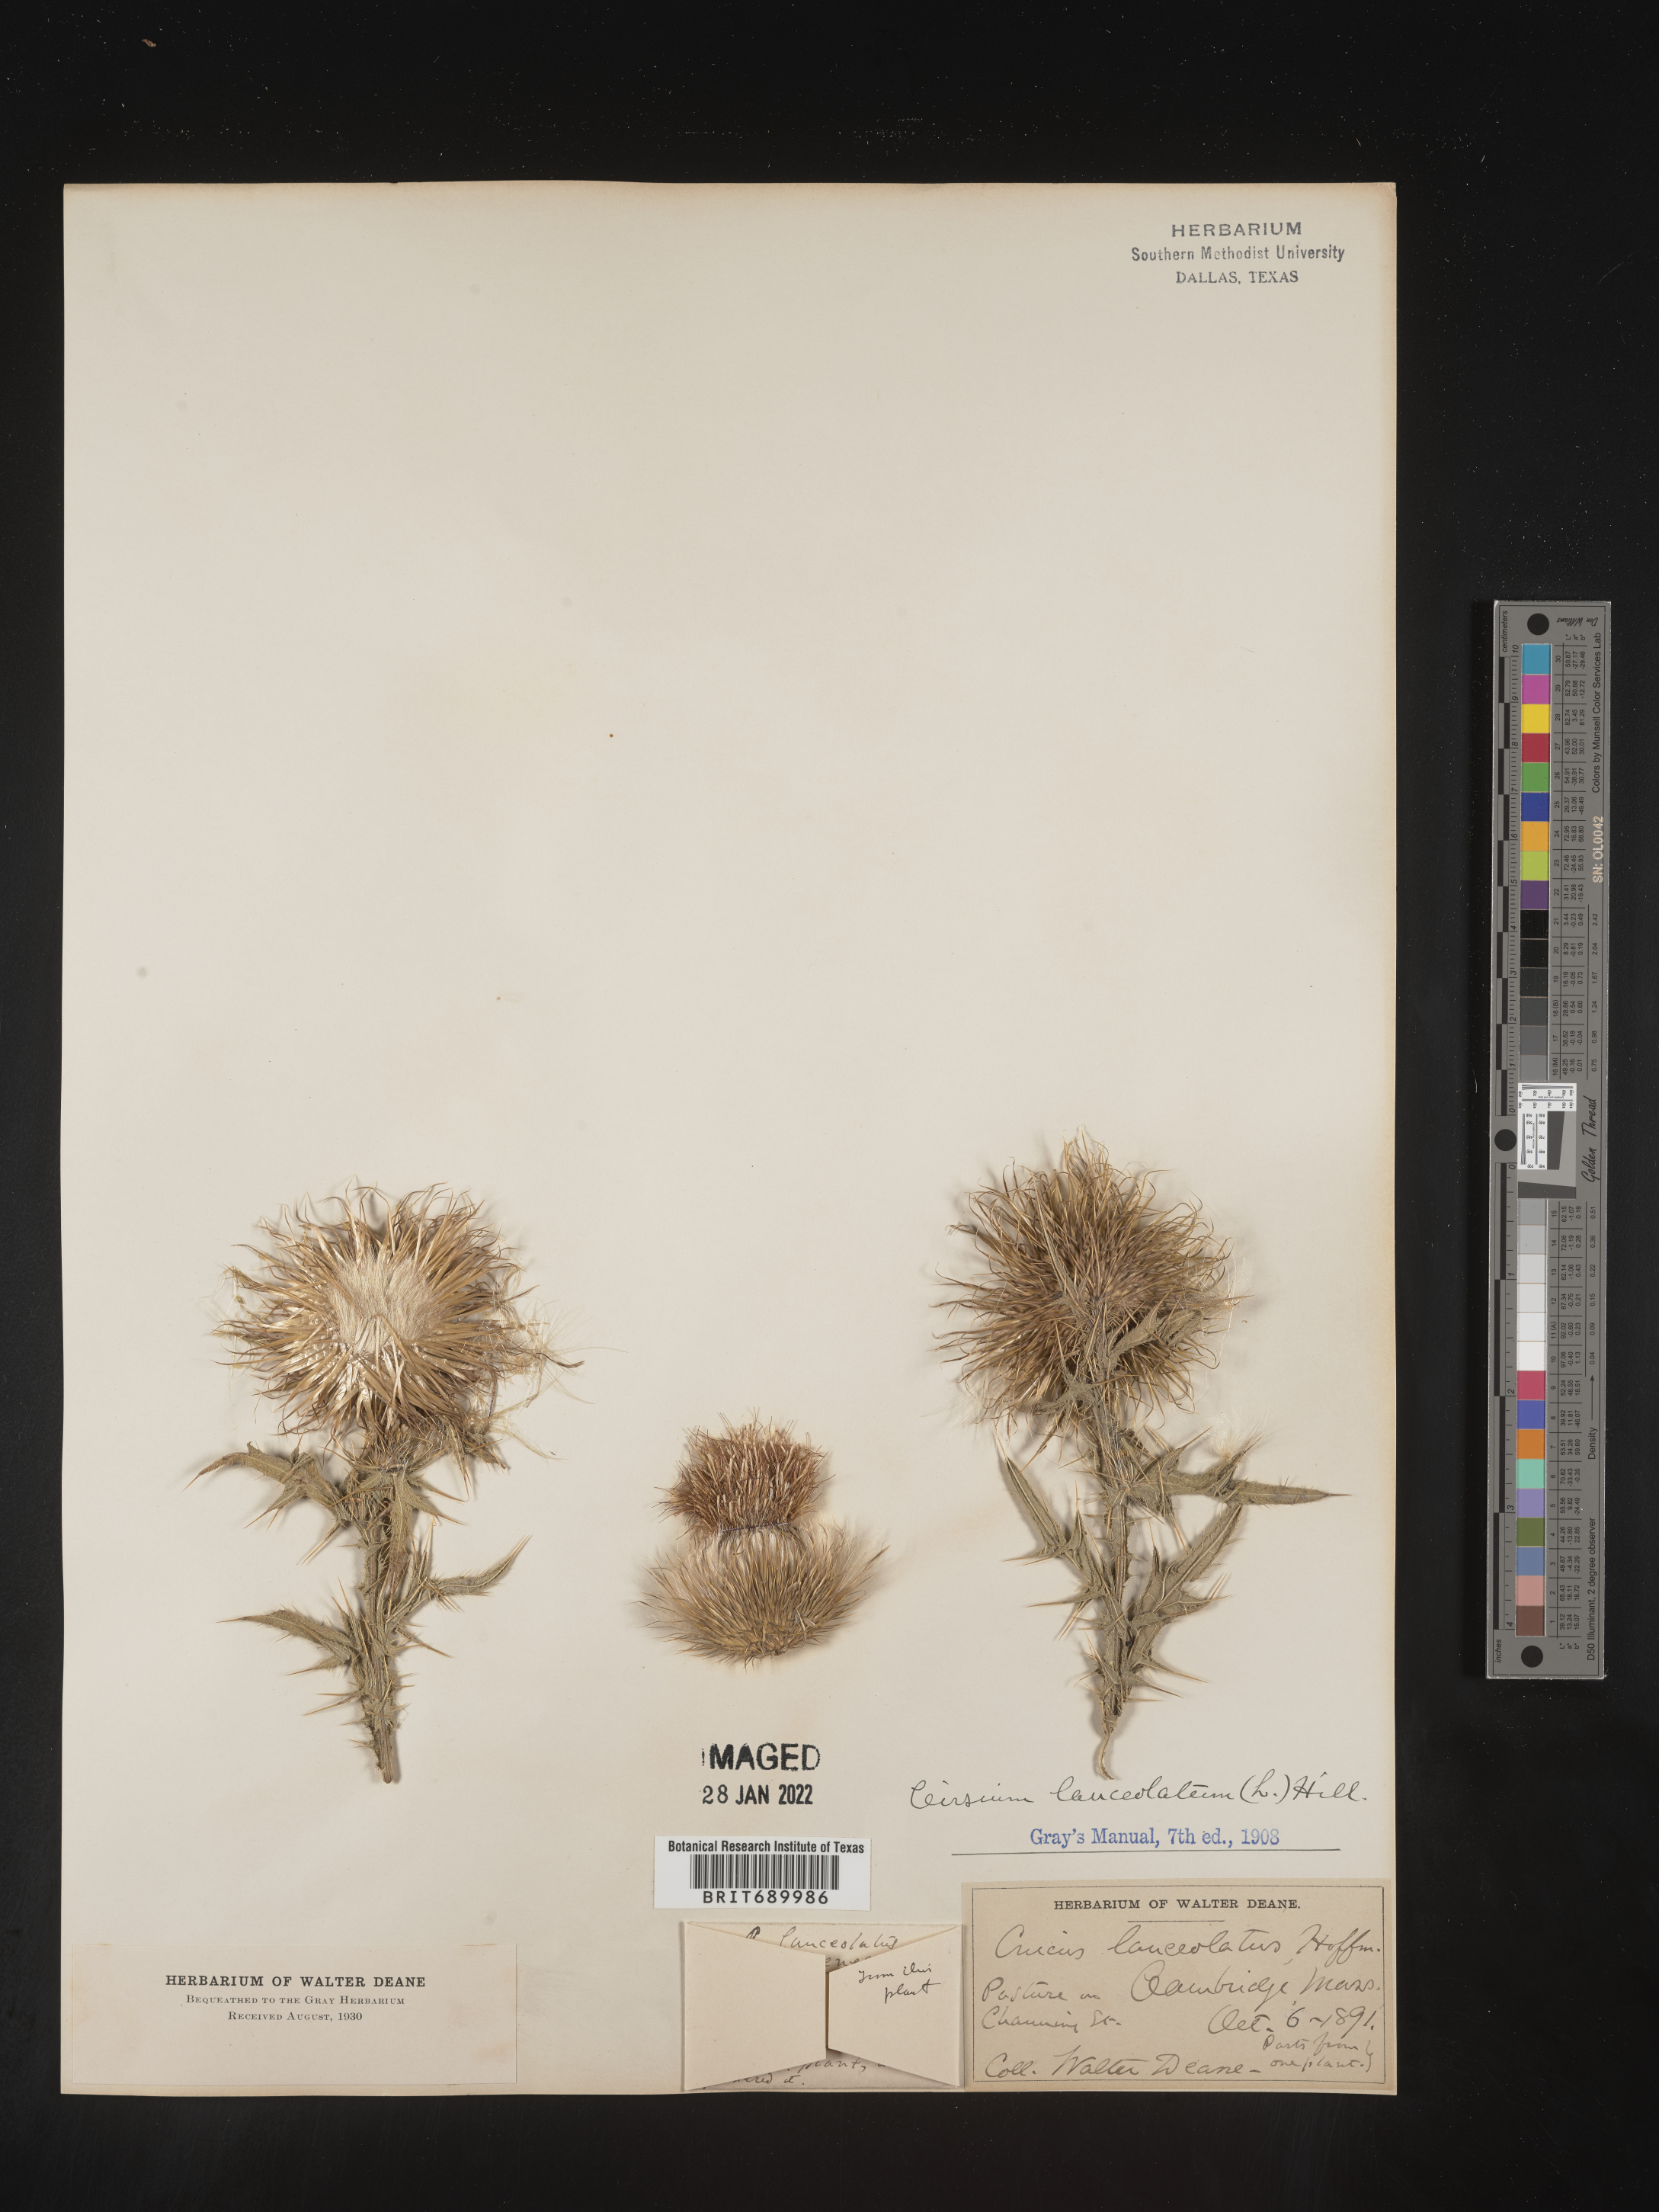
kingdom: Plantae
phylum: Tracheophyta
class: Magnoliopsida
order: Asterales
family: Asteraceae
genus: Cirsium
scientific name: Cirsium vulgare
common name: Bull thistle
